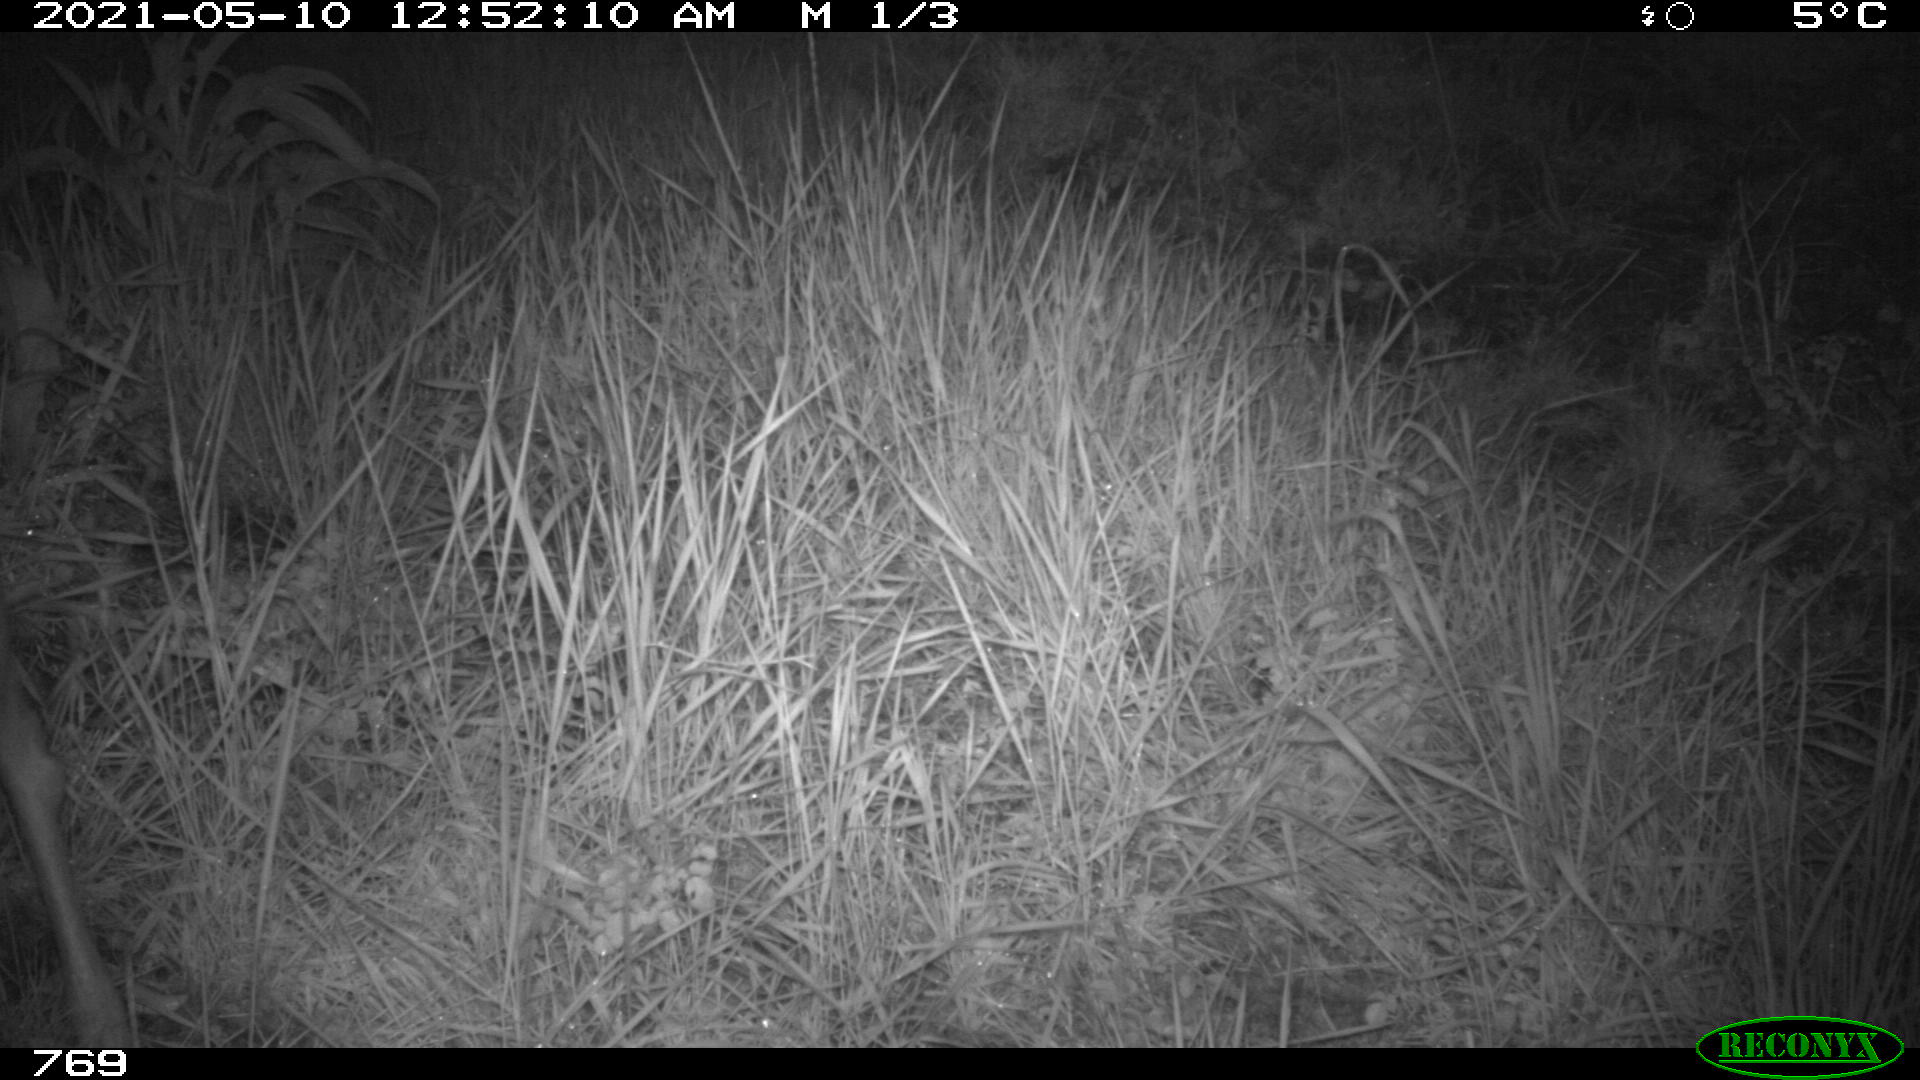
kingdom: Animalia
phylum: Chordata
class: Mammalia
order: Artiodactyla
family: Cervidae
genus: Capreolus
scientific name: Capreolus capreolus
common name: Western roe deer
